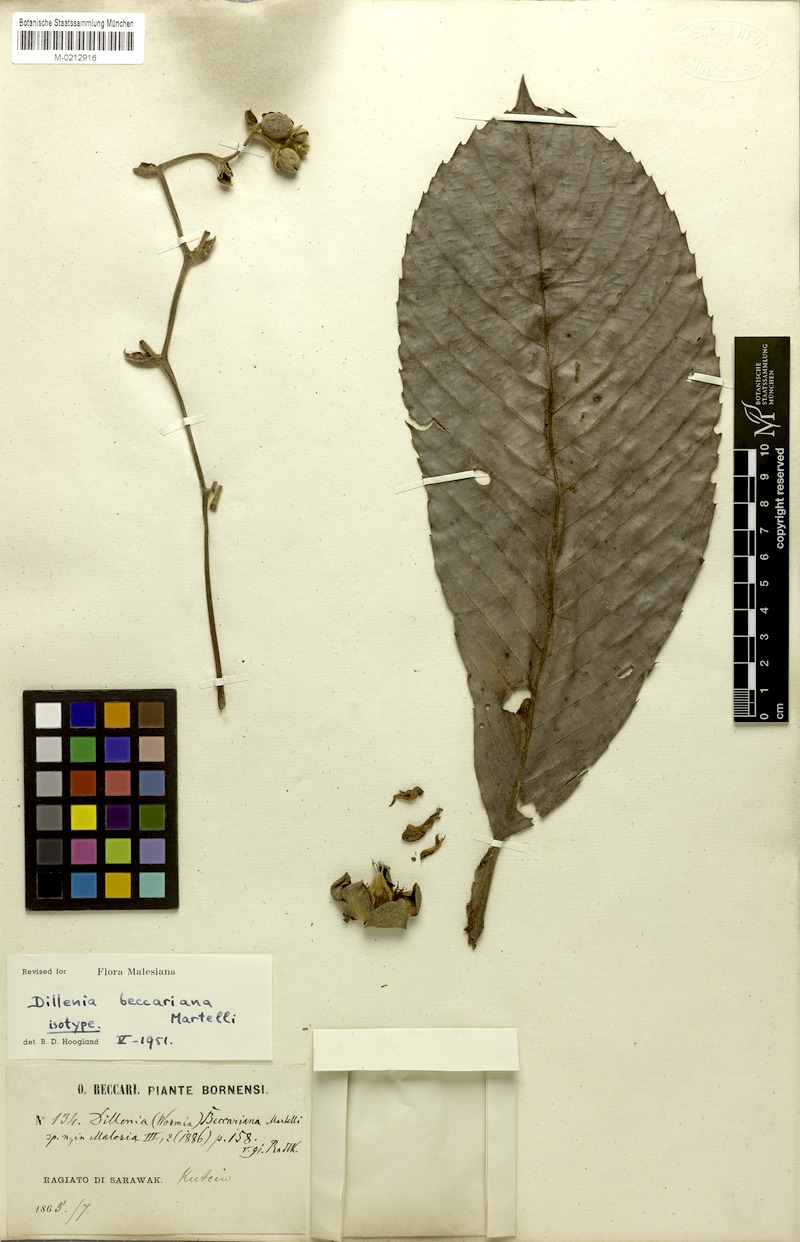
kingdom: Plantae
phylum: Tracheophyta
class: Magnoliopsida
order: Dilleniales
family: Dilleniaceae
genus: Dillenia
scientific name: Dillenia beccariana
